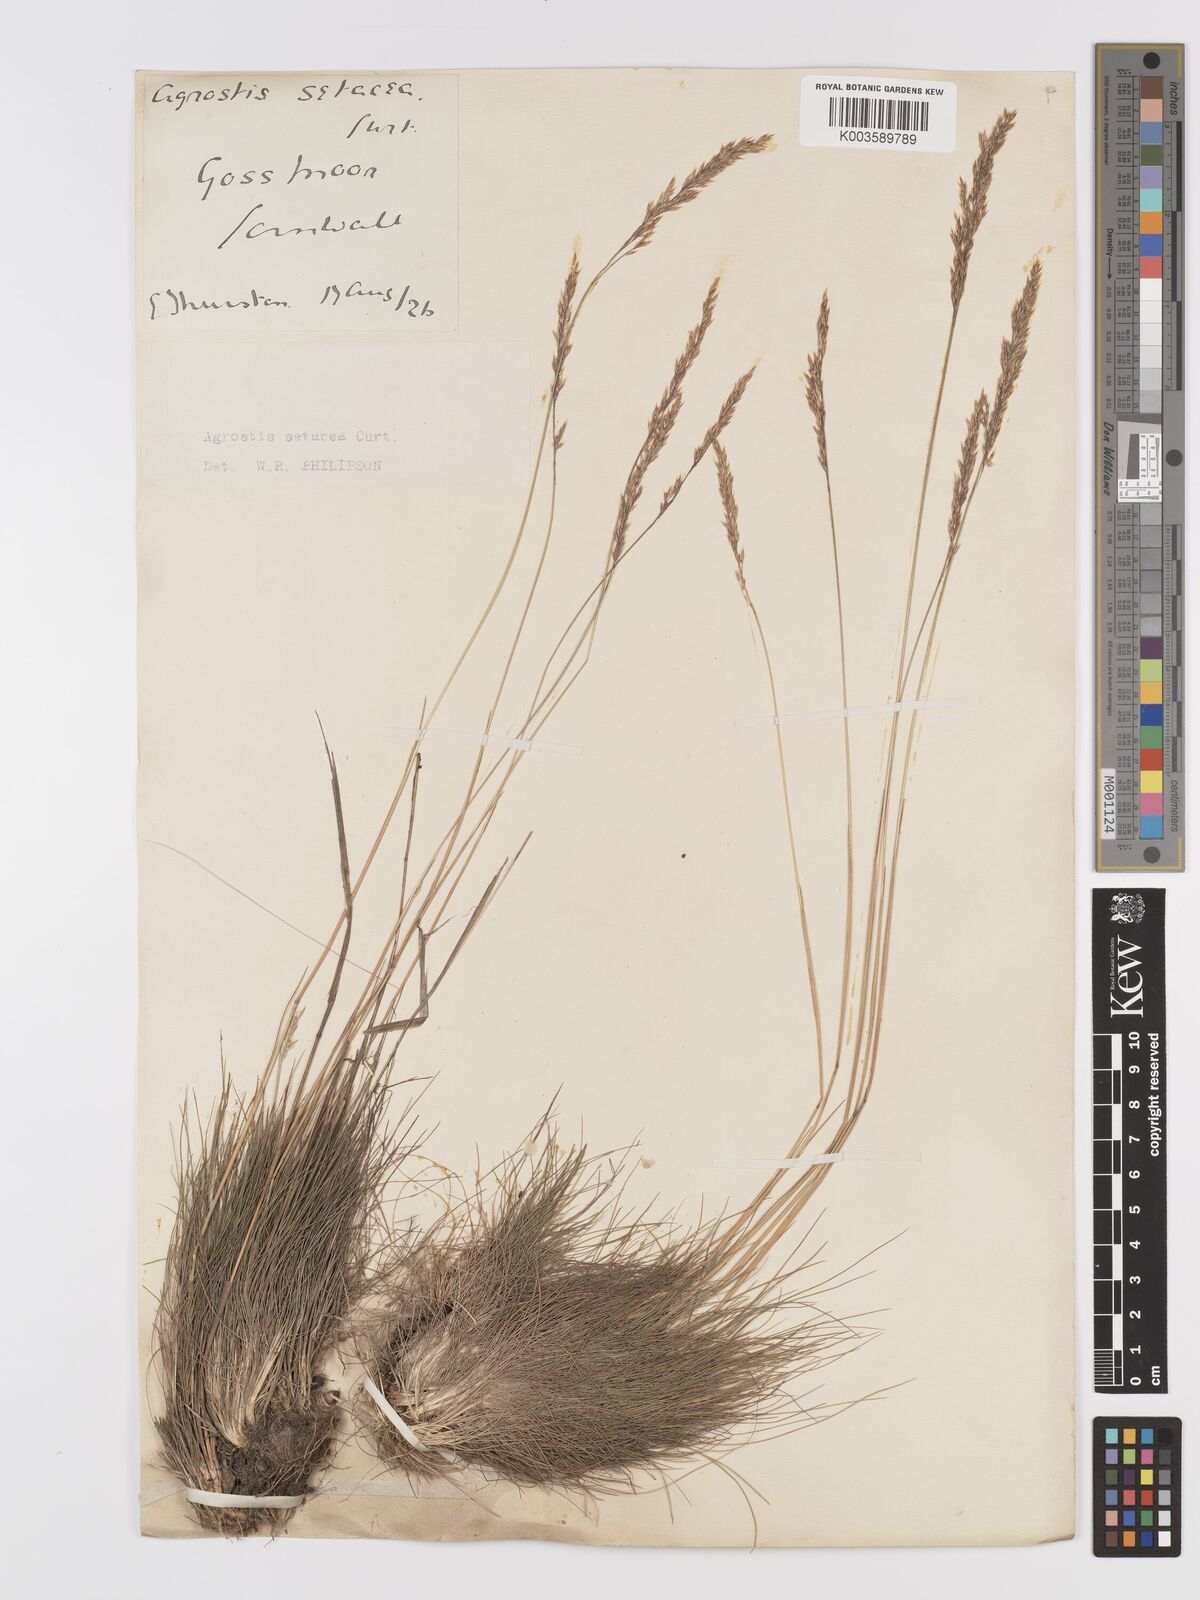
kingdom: Plantae
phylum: Tracheophyta
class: Liliopsida
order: Poales
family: Poaceae
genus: Alpagrostis
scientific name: Alpagrostis setacea
